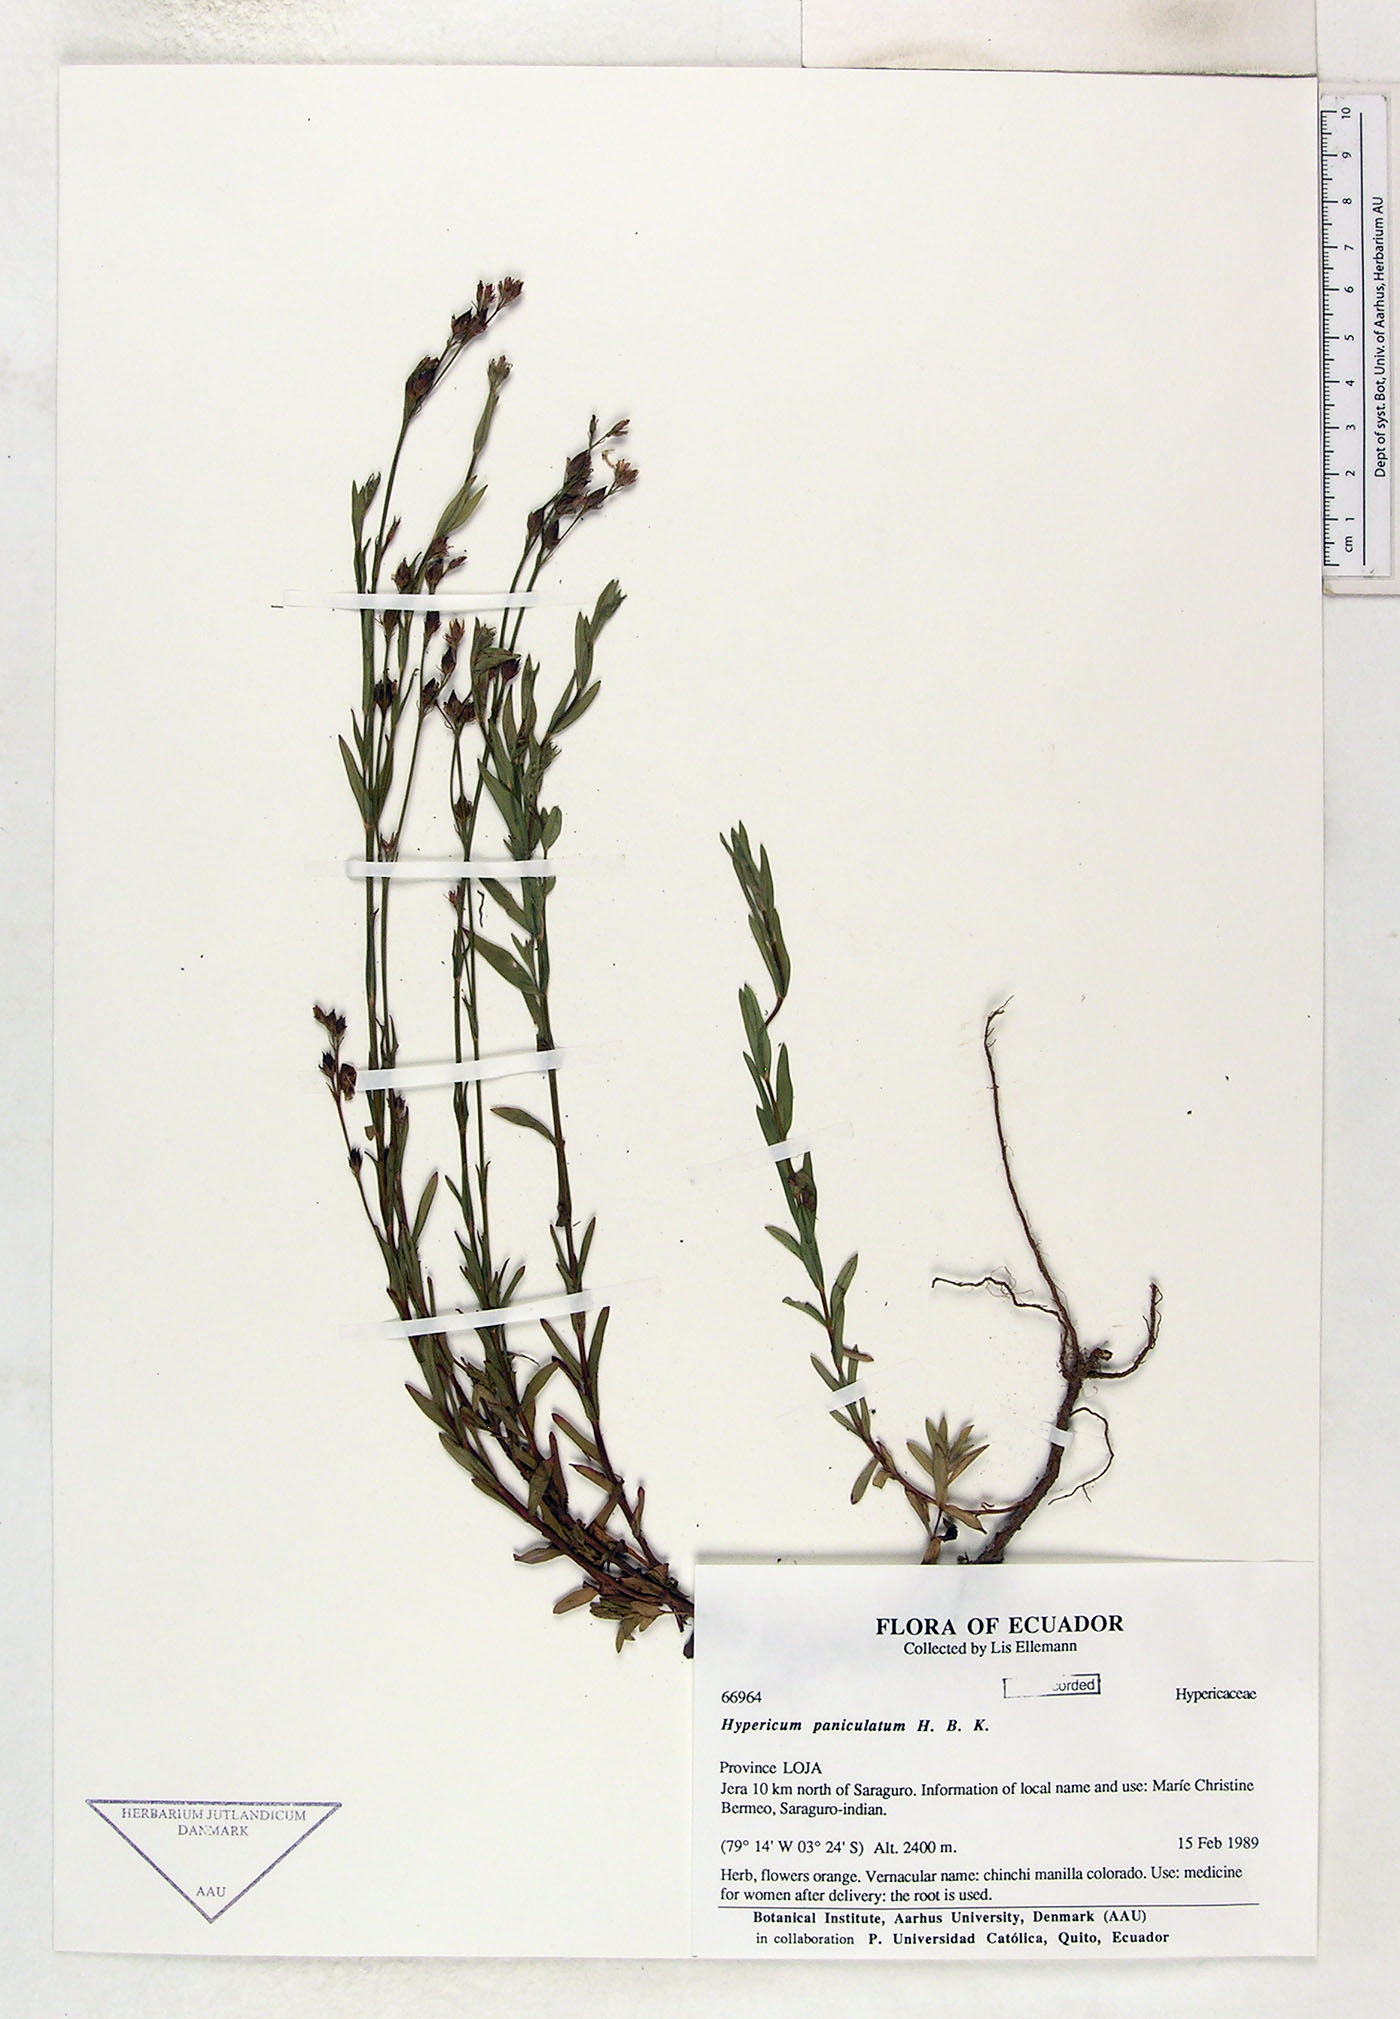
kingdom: Plantae
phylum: Tracheophyta
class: Magnoliopsida
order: Malpighiales
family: Hypericaceae
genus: Hypericum
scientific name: Hypericum philonotis
